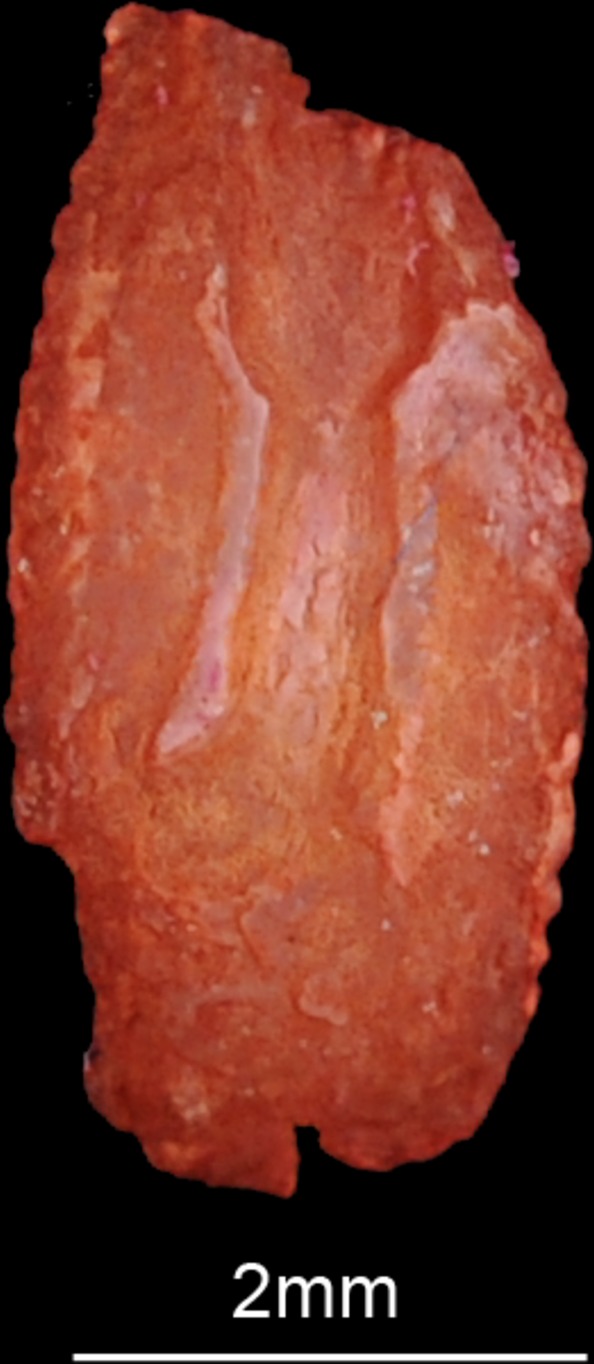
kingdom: Animalia
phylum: Chordata
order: Perciformes
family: Serranidae
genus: Rypticus
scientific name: Rypticus saponaceus
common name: Soapfish
